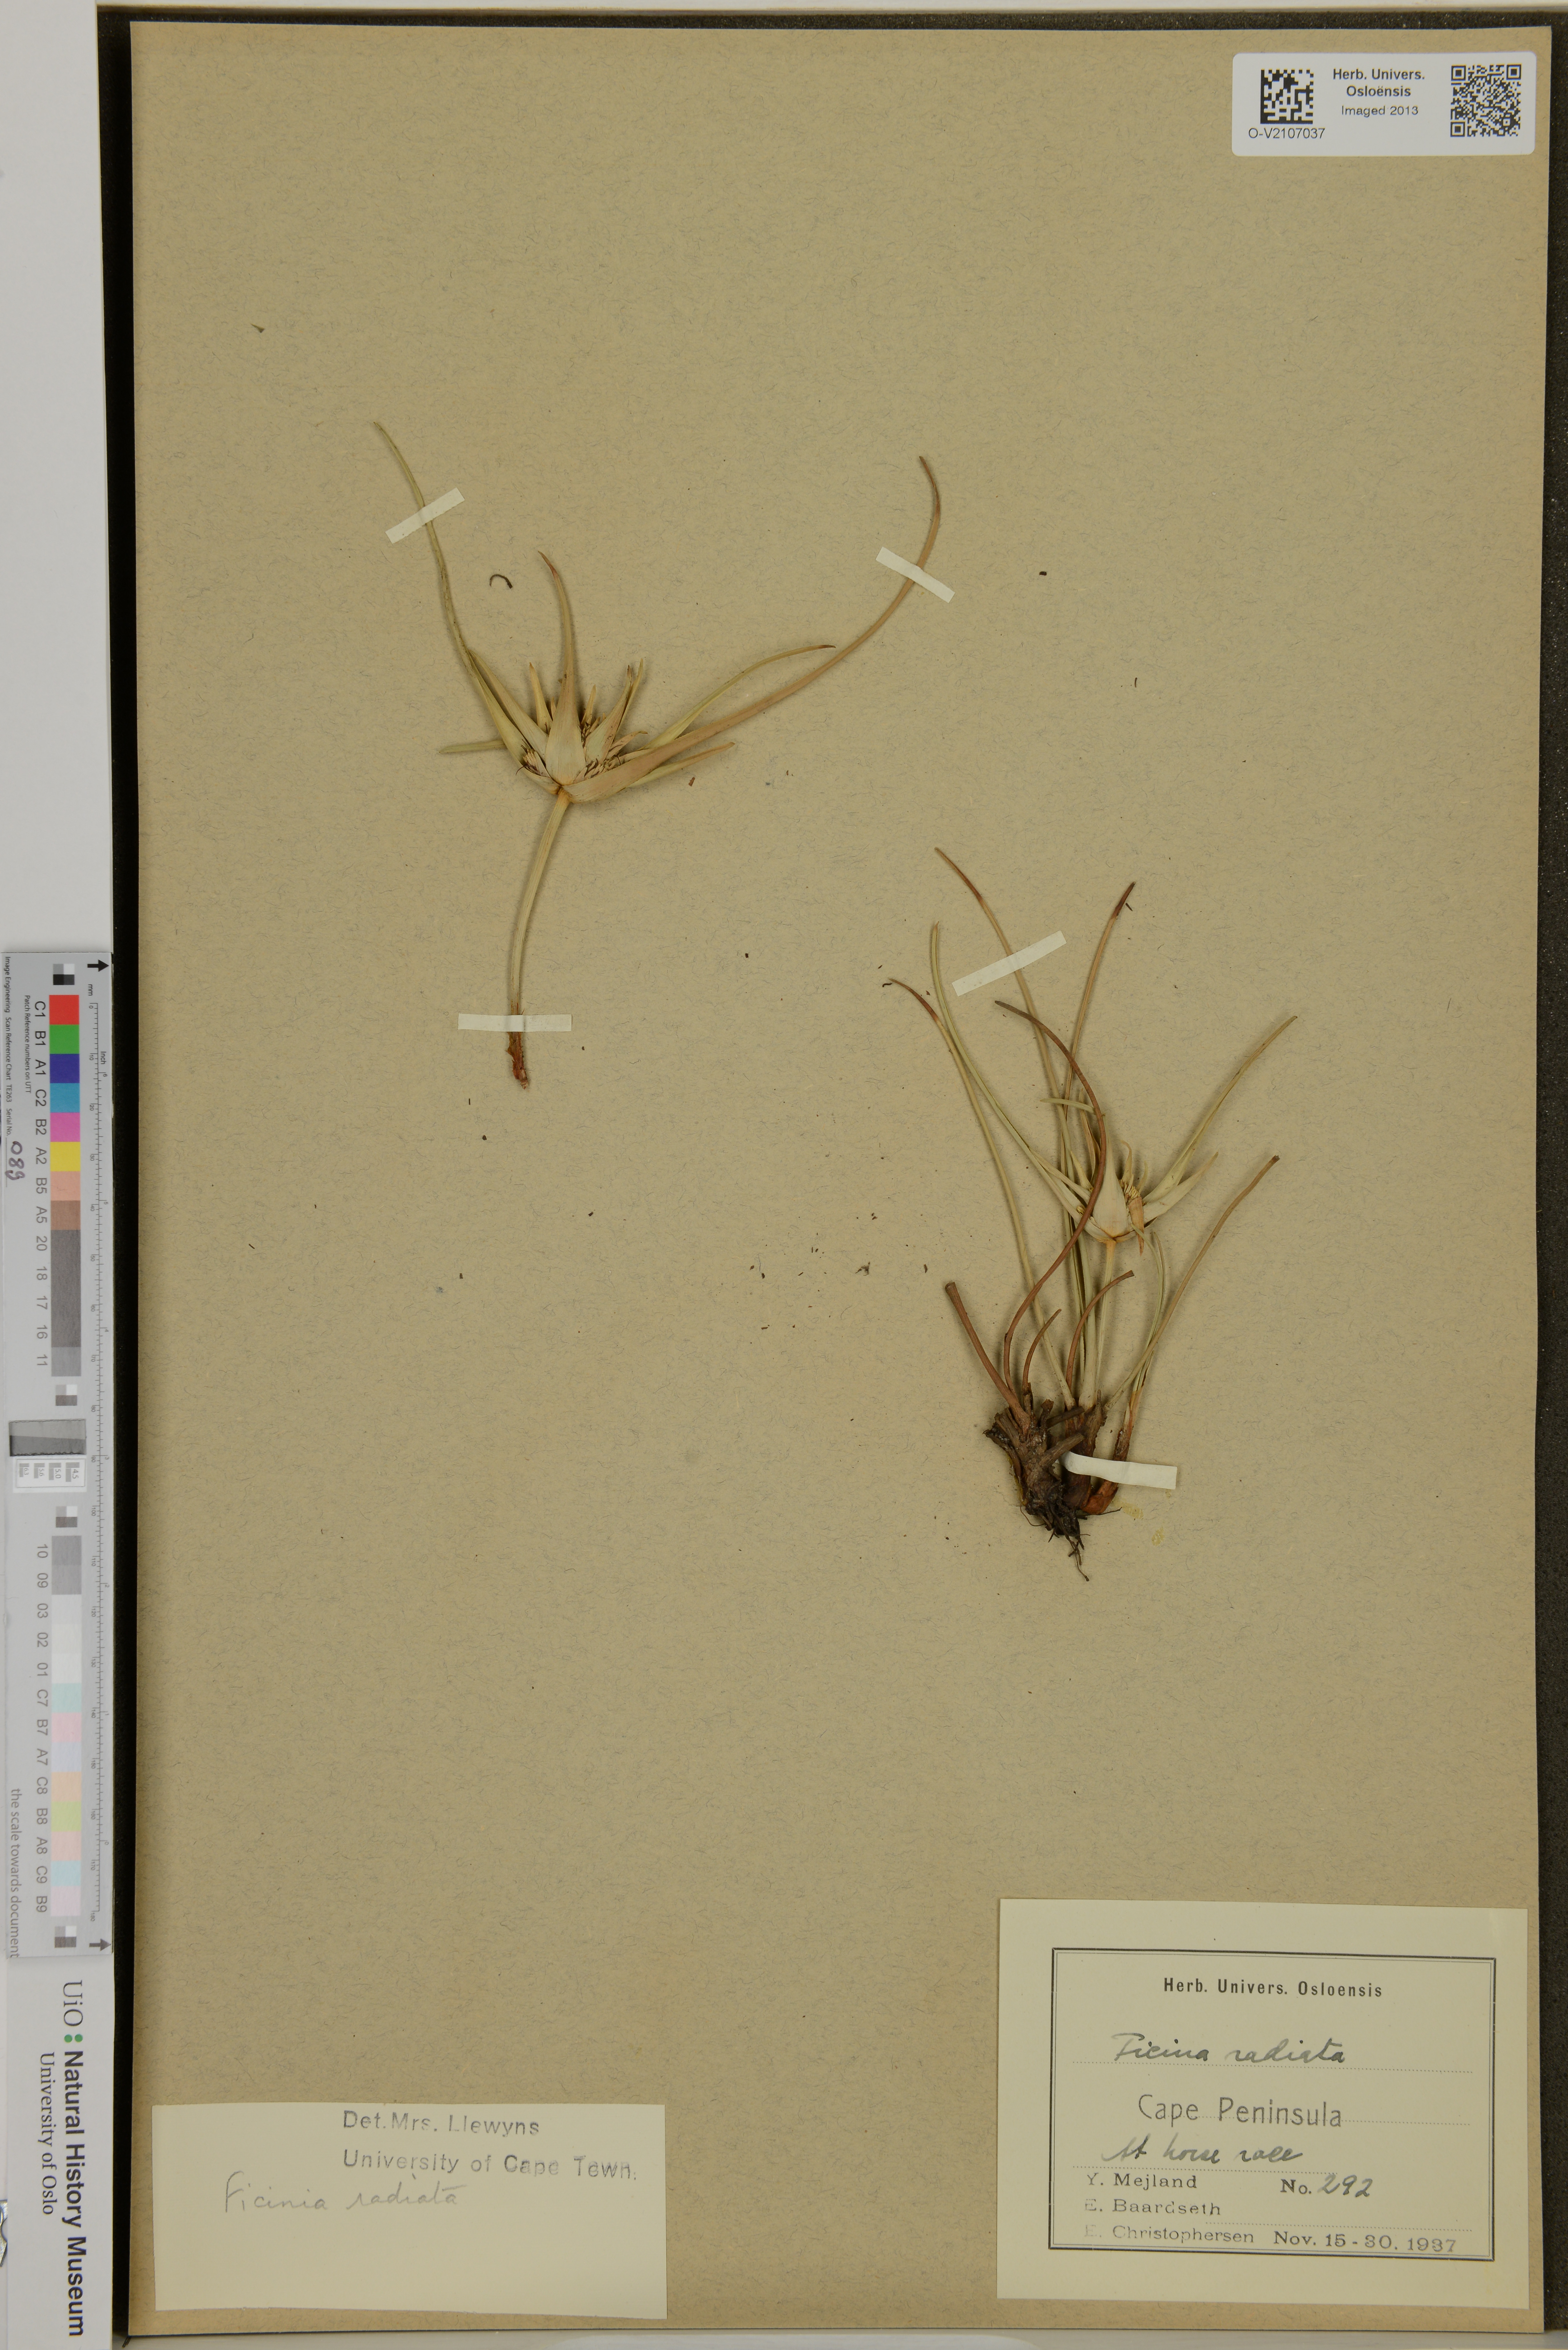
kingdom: Plantae
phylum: Tracheophyta
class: Liliopsida
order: Poales
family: Cyperaceae
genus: Ficinia
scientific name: Ficinia radiata
